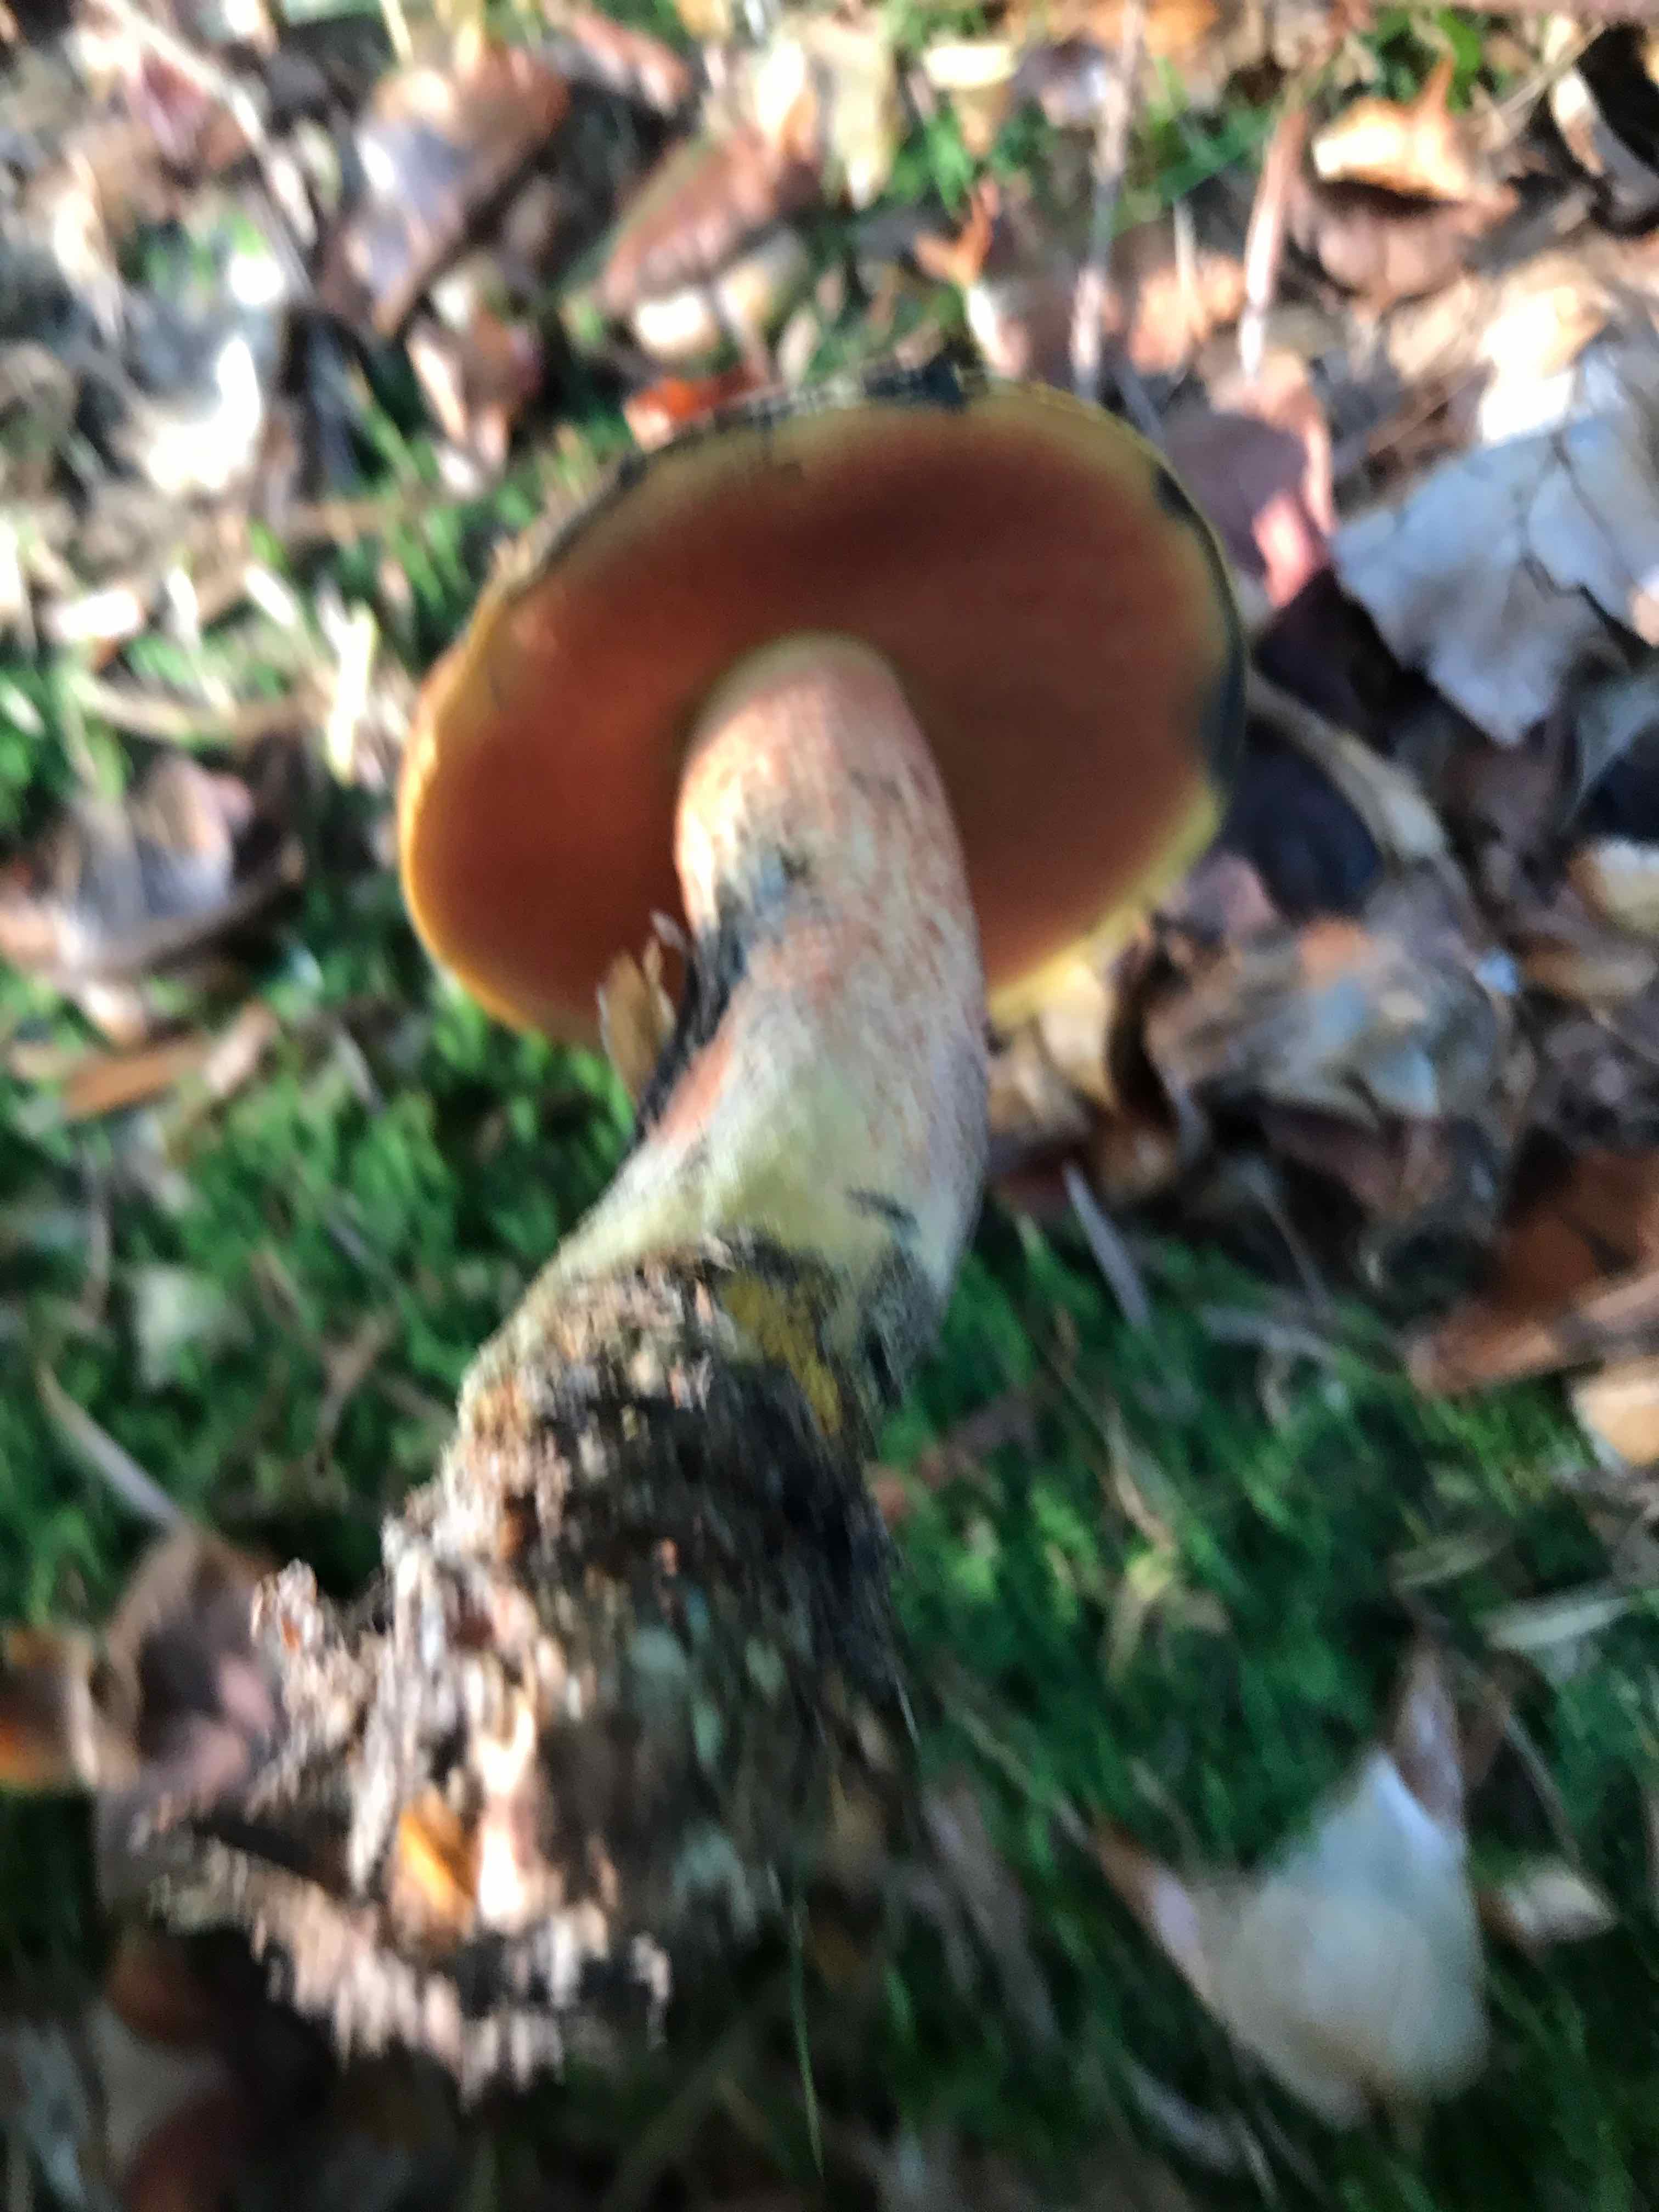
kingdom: Fungi
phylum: Basidiomycota
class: Agaricomycetes
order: Boletales
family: Boletaceae
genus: Neoboletus
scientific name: Neoboletus erythropus
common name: punktstokket indigorørhat
